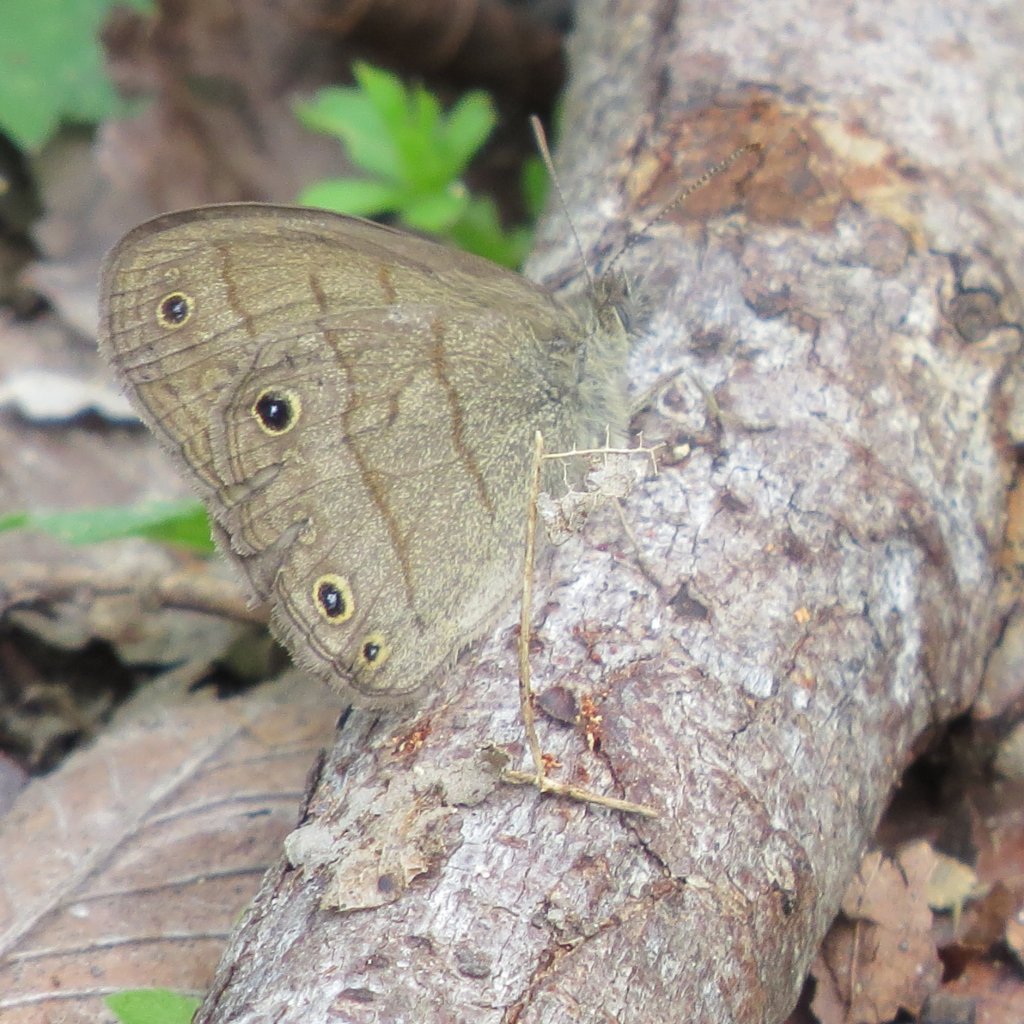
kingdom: Animalia
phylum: Arthropoda
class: Insecta
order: Lepidoptera
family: Nymphalidae
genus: Hermeuptychia
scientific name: Hermeuptychia hermes
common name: Carolina Satyr
